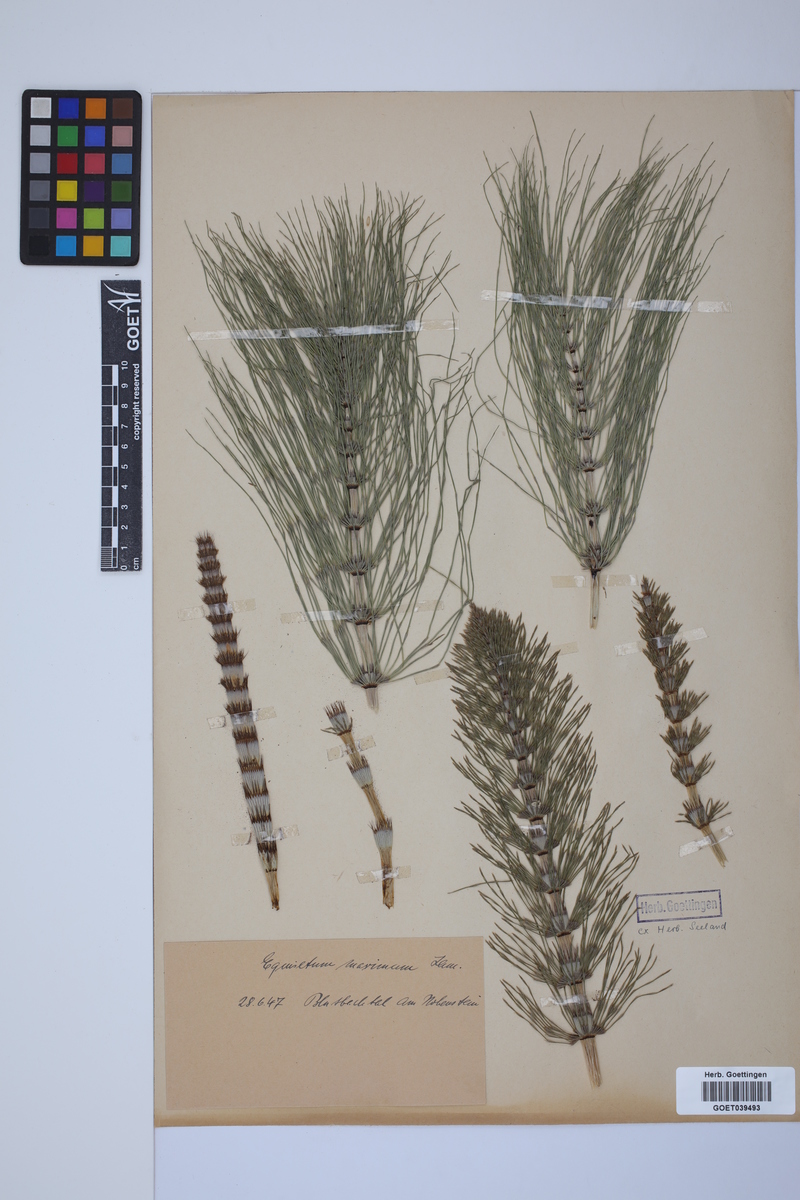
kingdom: Plantae
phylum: Tracheophyta
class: Polypodiopsida
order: Equisetales
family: Equisetaceae
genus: Equisetum
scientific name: Equisetum telmateia
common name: Great horsetail
